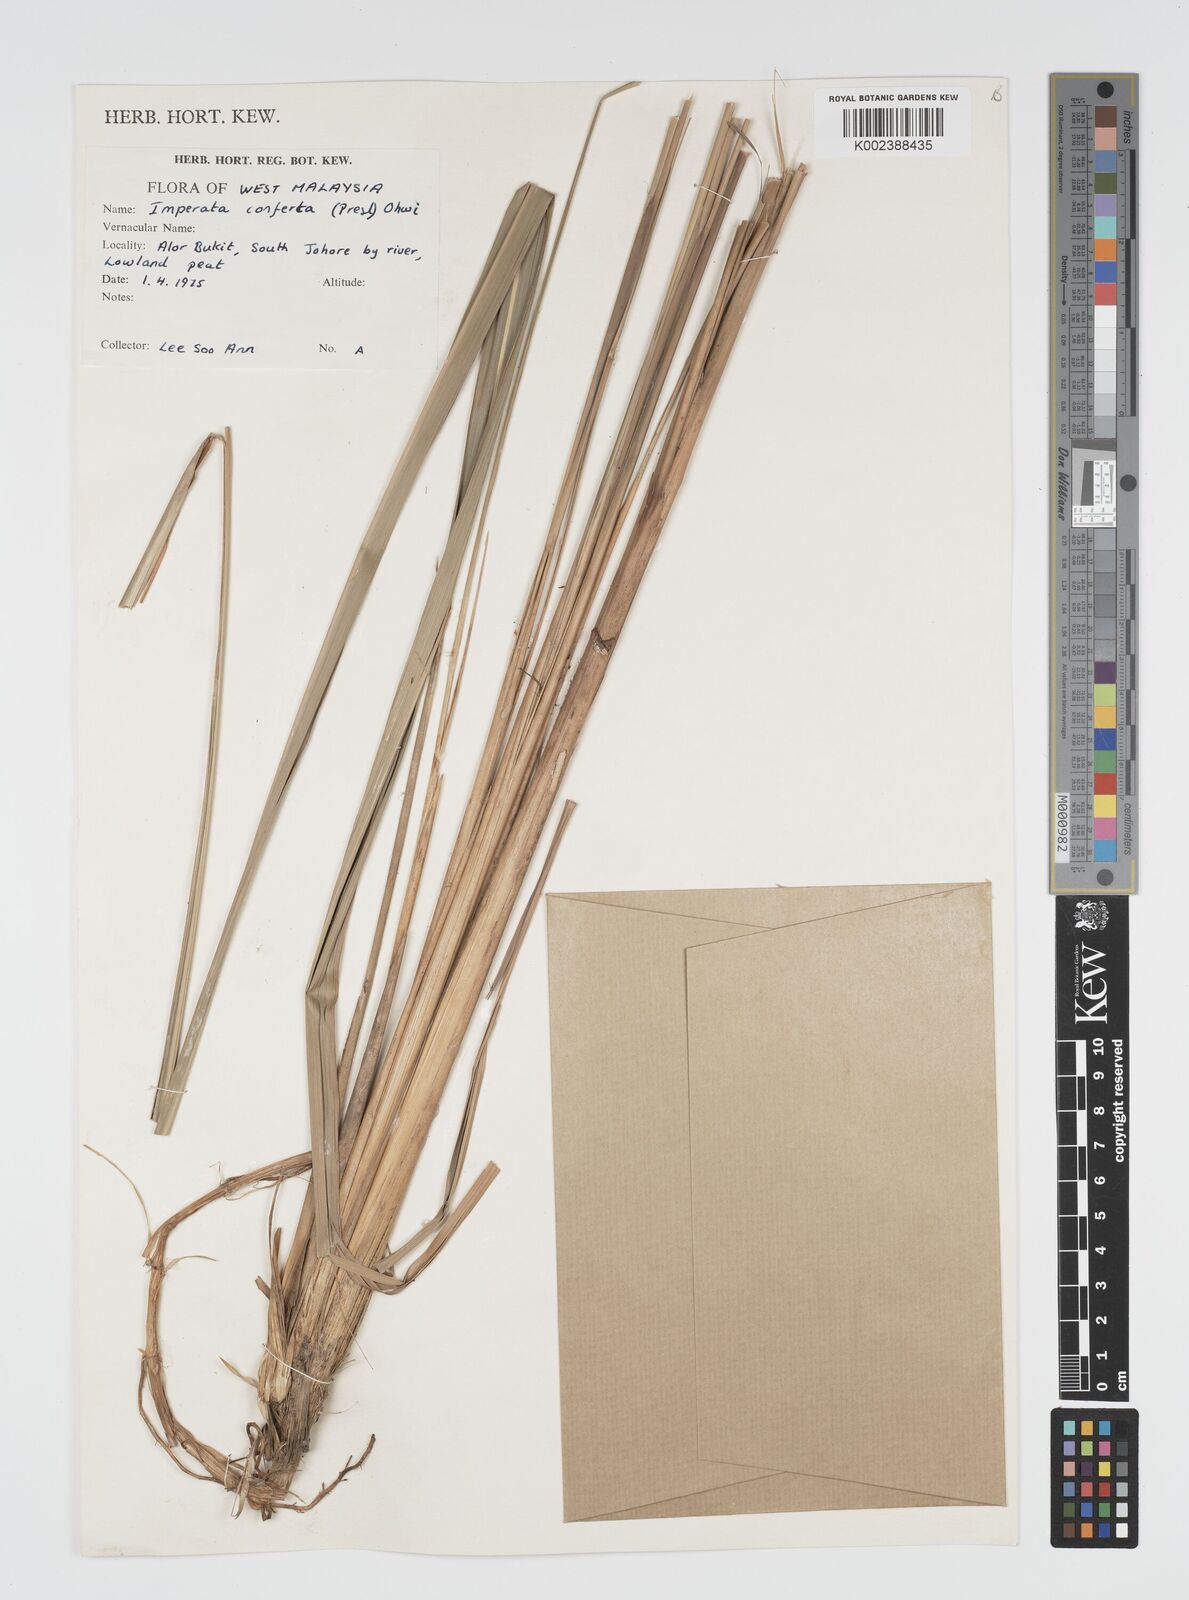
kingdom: Plantae
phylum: Tracheophyta
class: Liliopsida
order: Poales
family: Poaceae
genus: Imperata
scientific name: Imperata conferta
